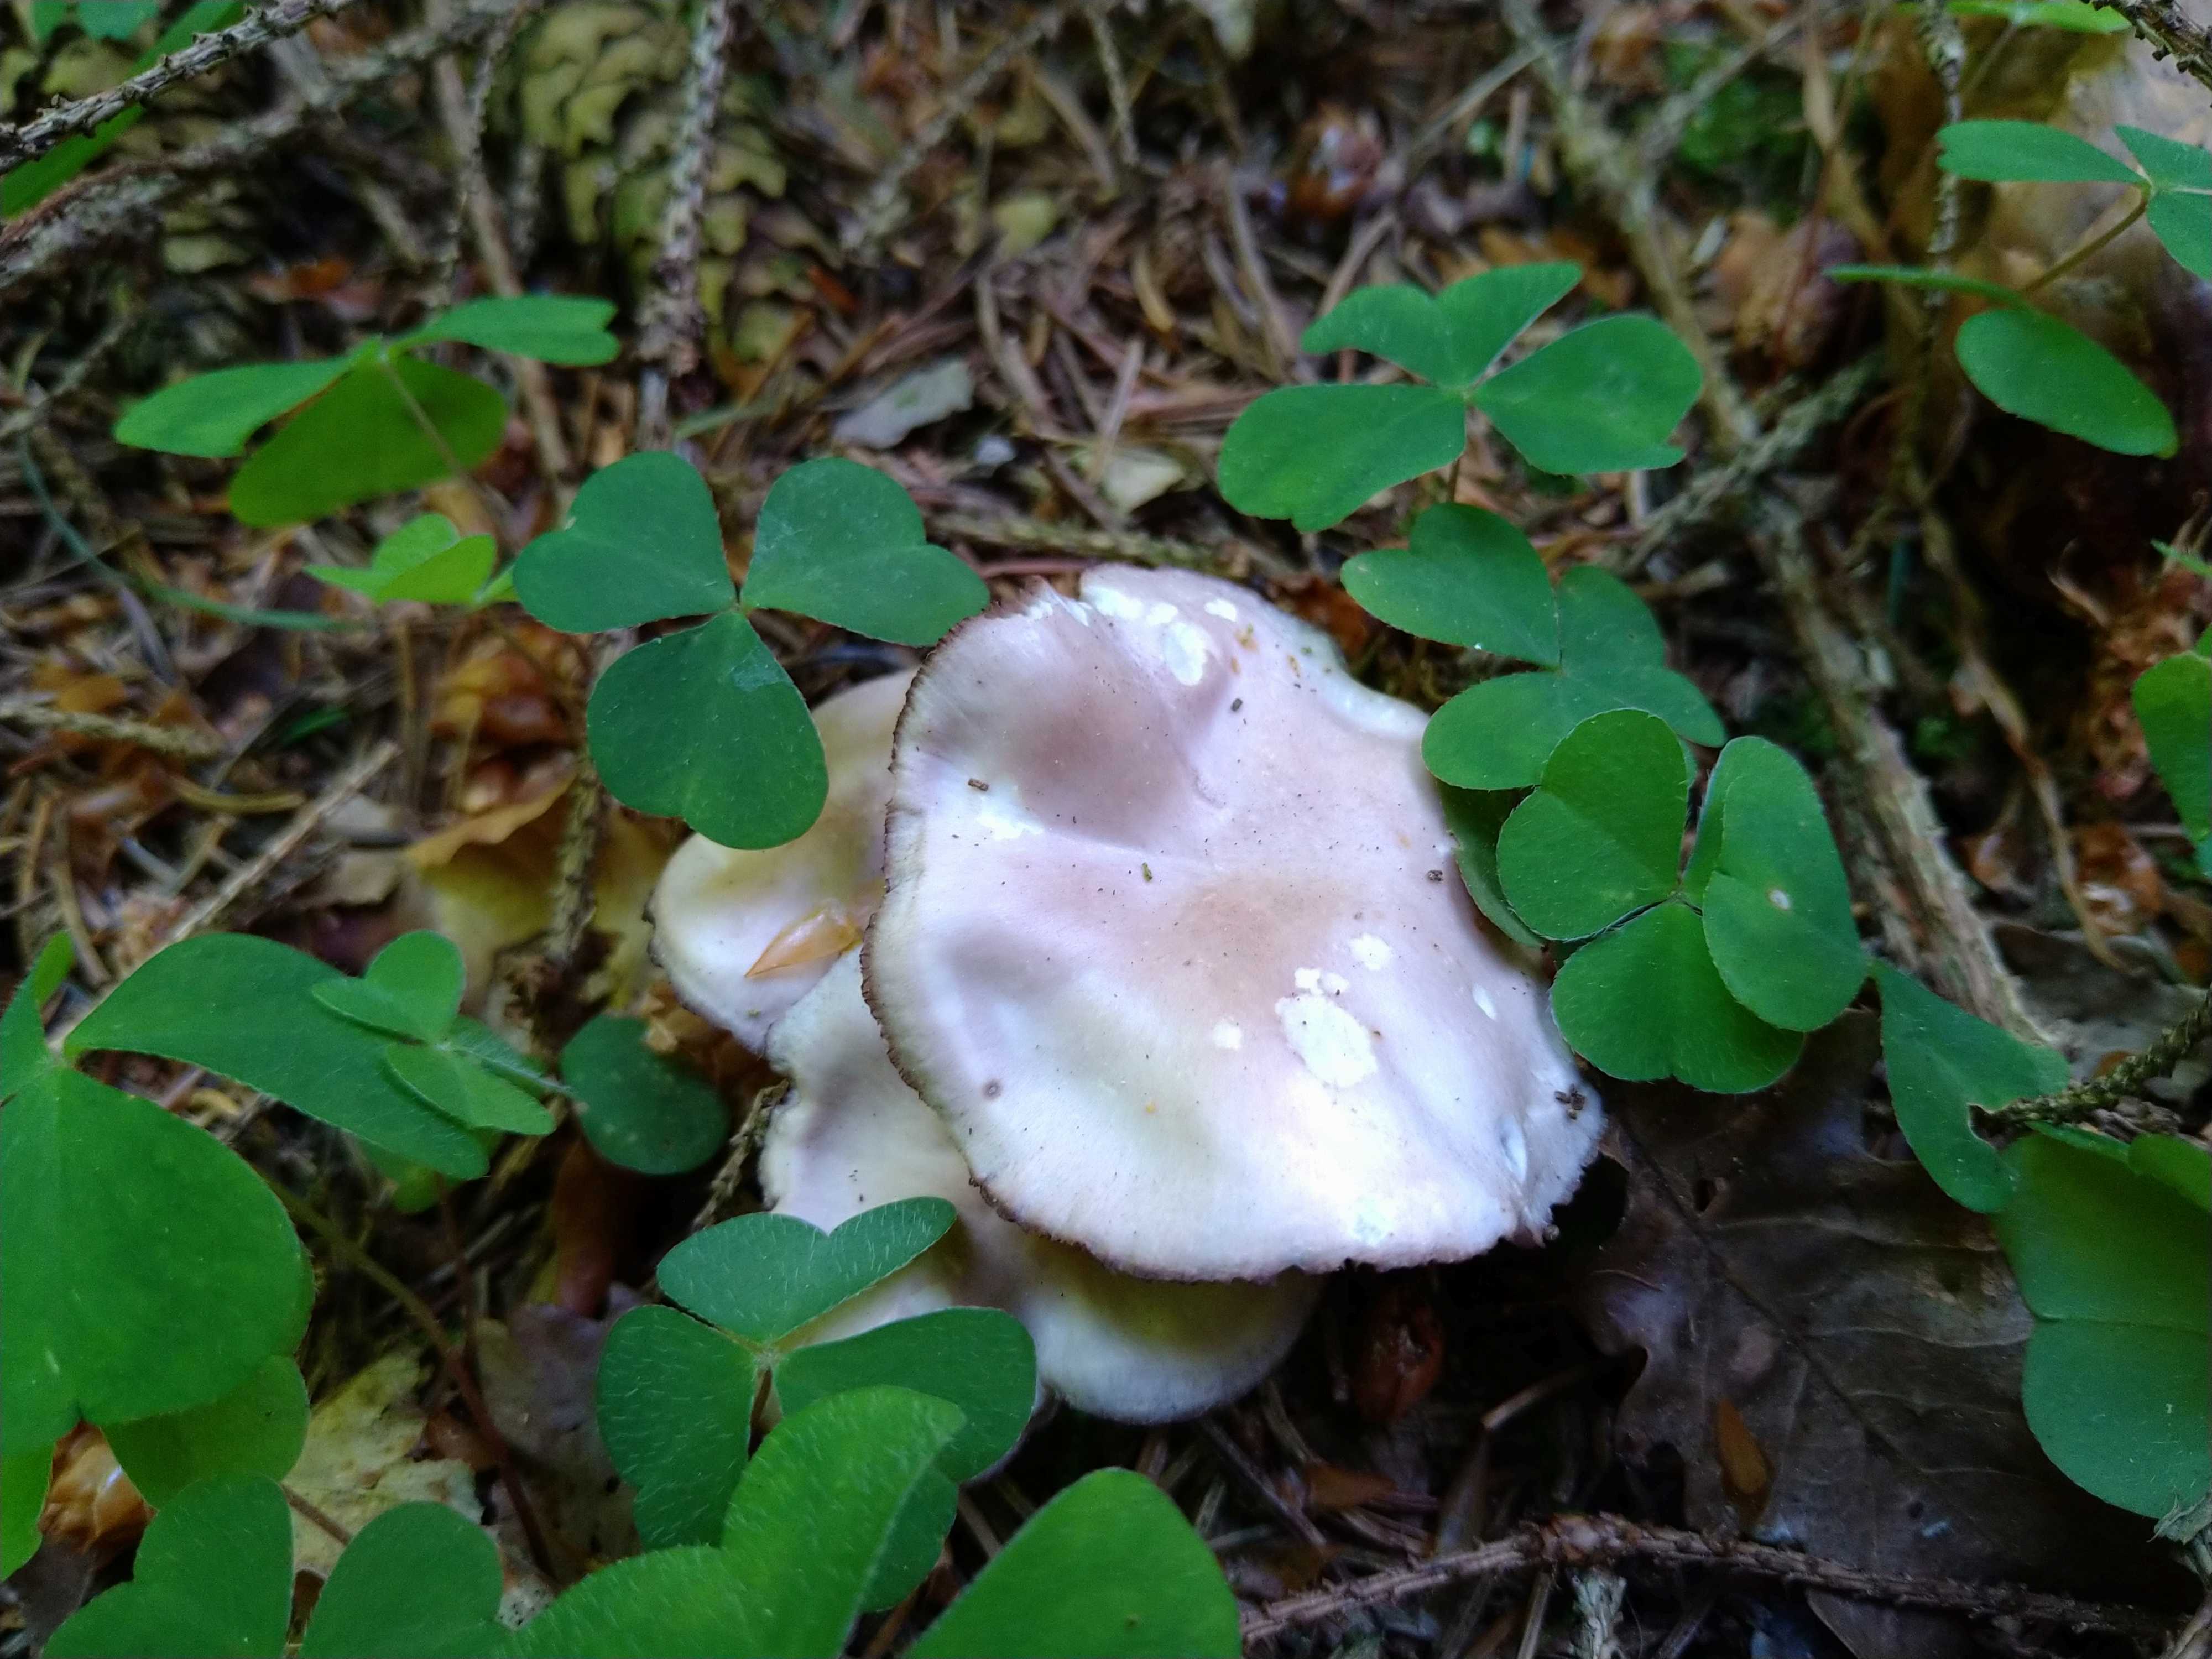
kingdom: Fungi
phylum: Basidiomycota
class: Agaricomycetes
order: Agaricales
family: Mycenaceae
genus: Mycena
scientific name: Mycena pelianthina
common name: mørkbladet huesvamp
